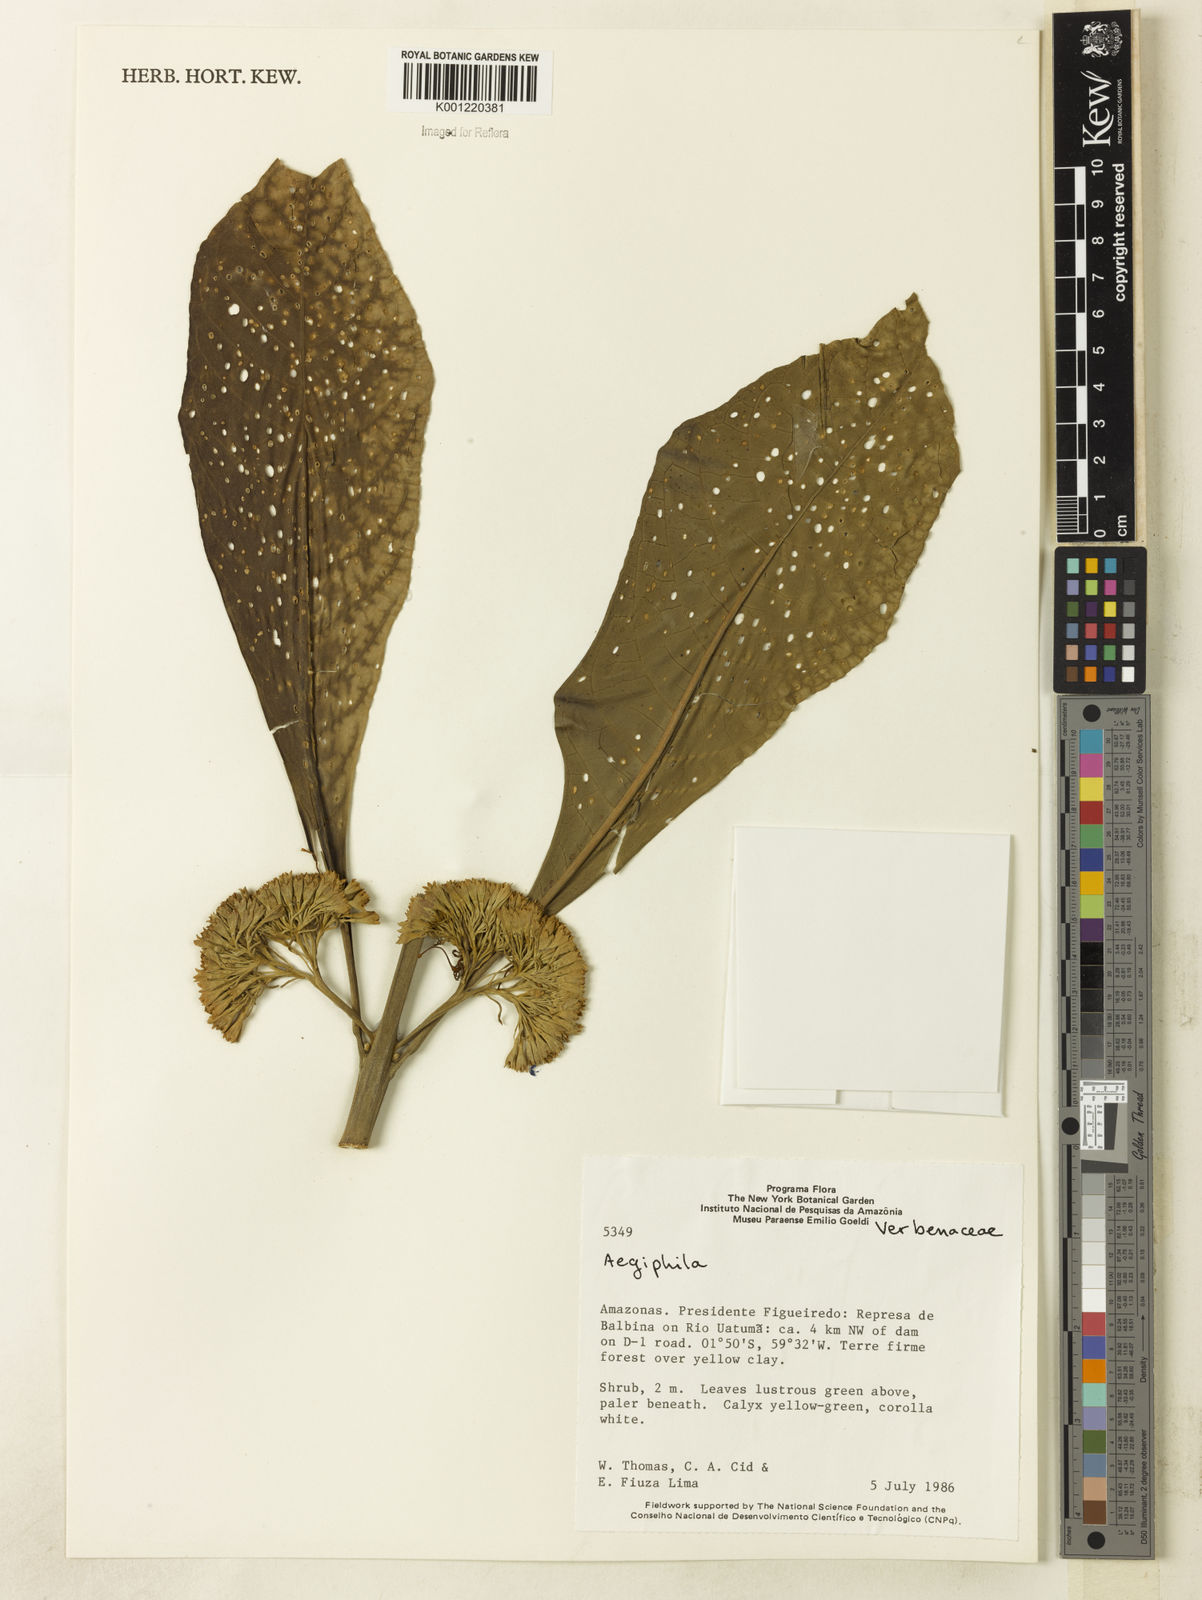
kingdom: Plantae
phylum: Tracheophyta
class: Magnoliopsida
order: Lamiales
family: Lamiaceae
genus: Aegiphila
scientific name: Aegiphila
